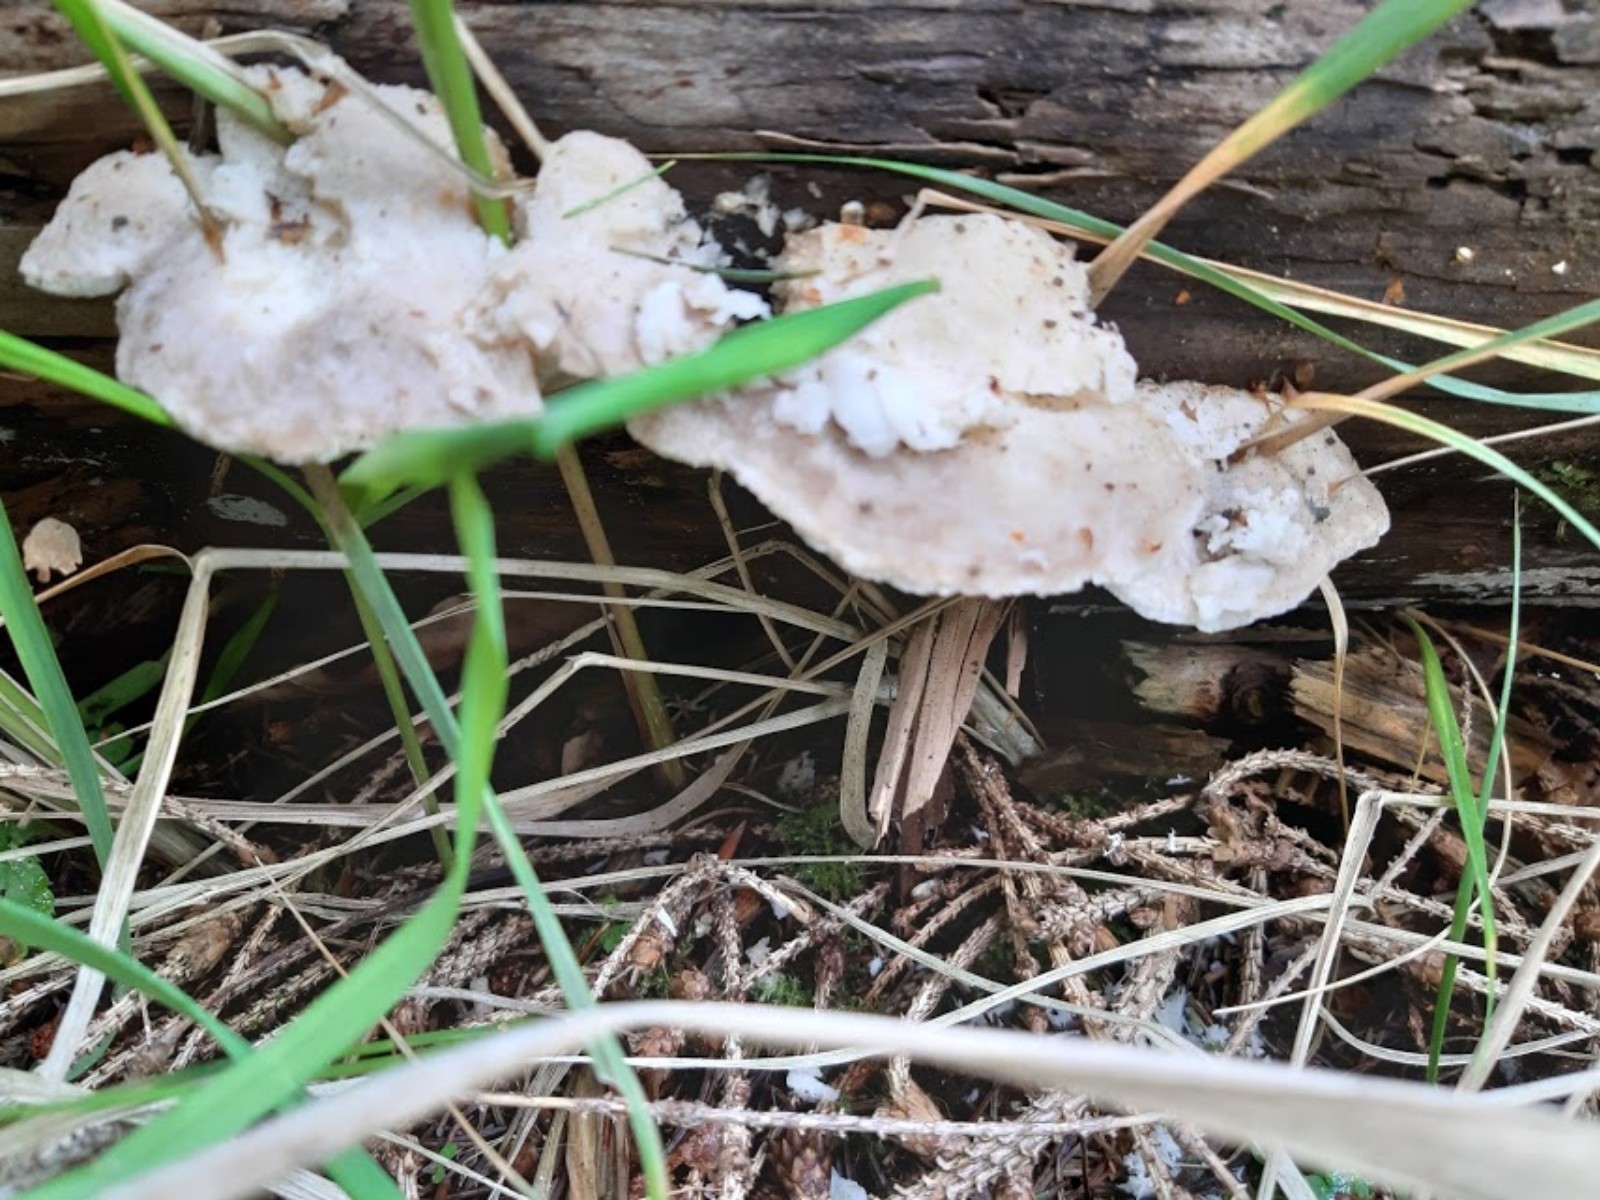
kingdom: Fungi
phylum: Basidiomycota
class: Agaricomycetes
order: Polyporales
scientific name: Polyporales
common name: poresvampordenen
